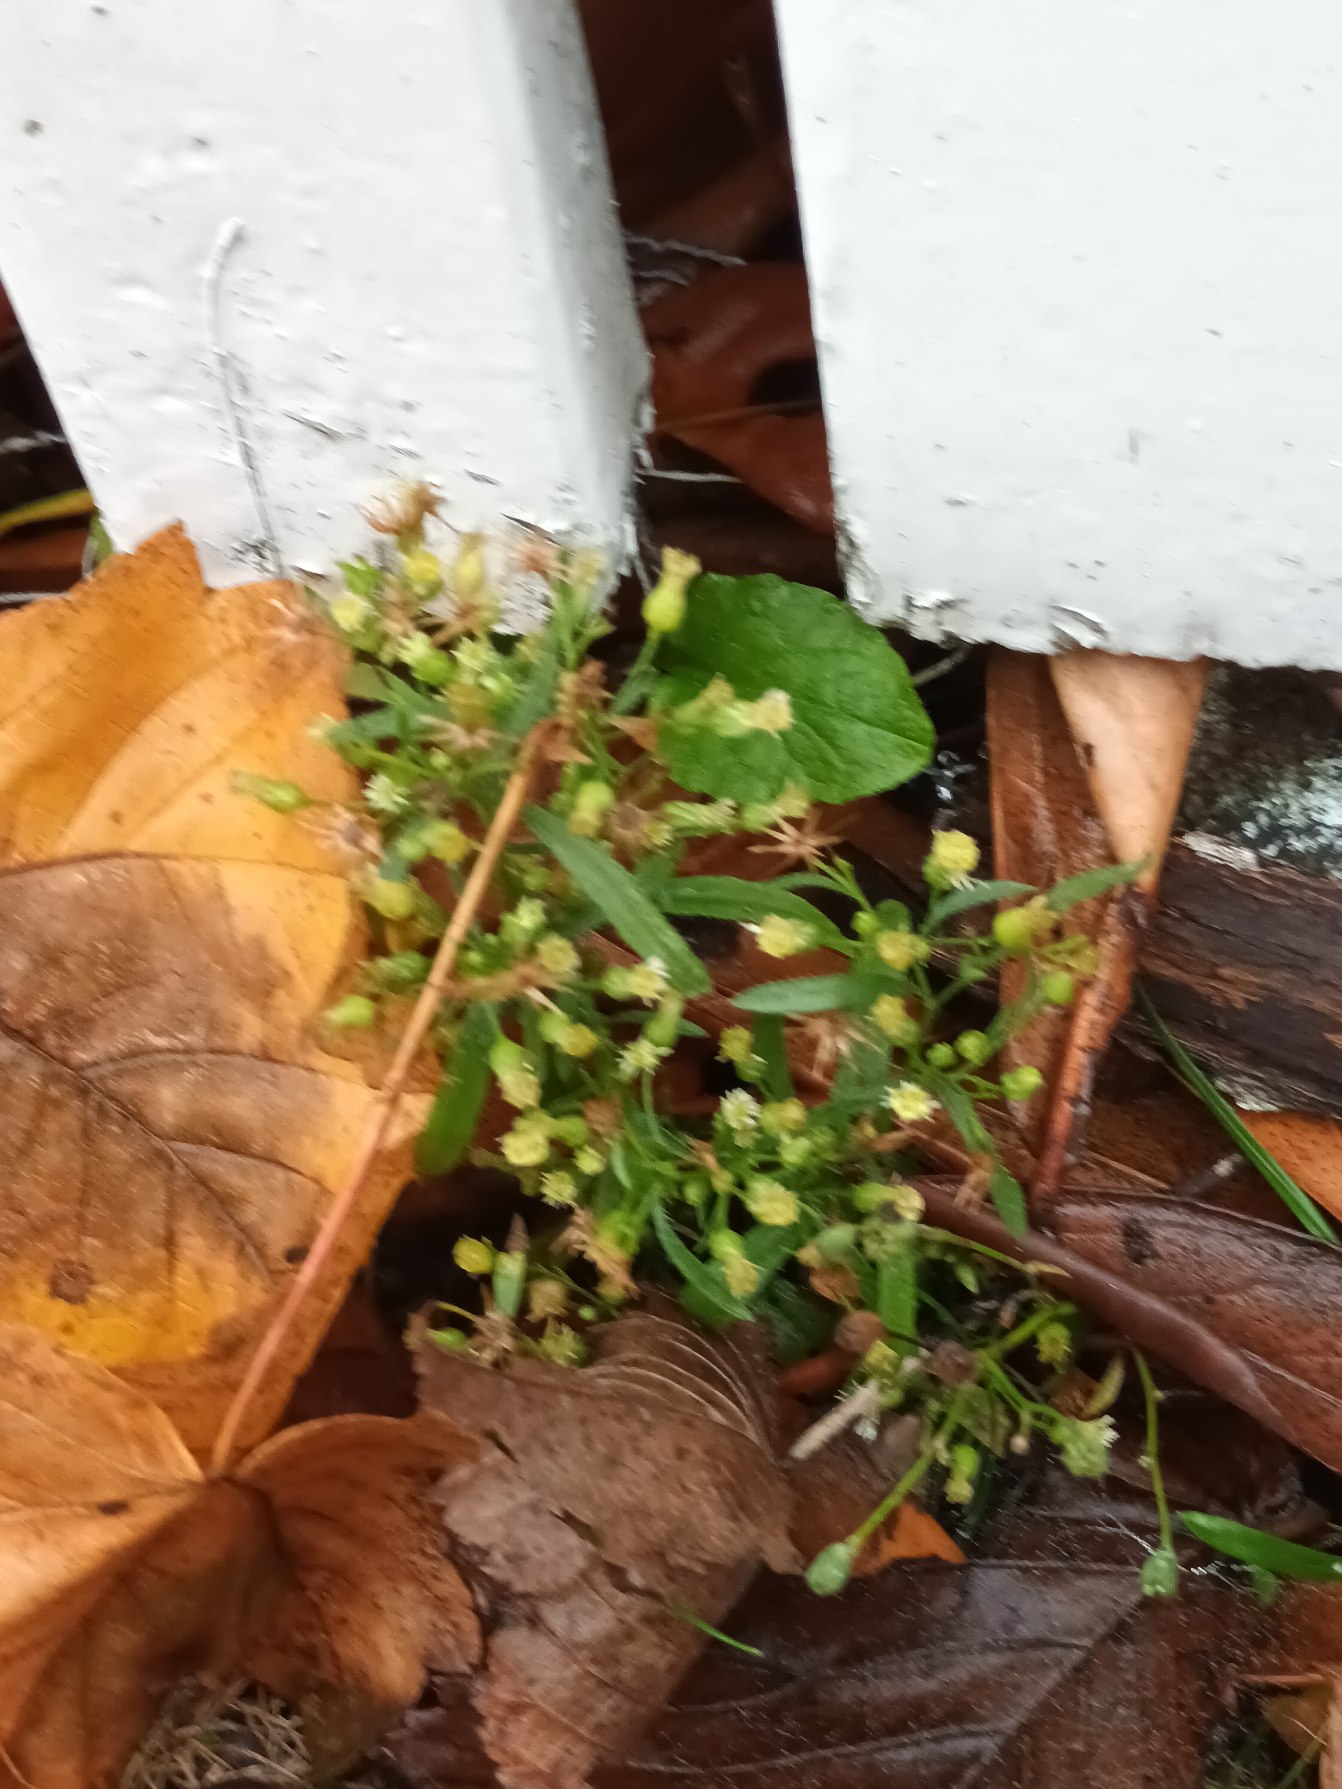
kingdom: Plantae
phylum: Tracheophyta
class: Magnoliopsida
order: Asterales
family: Asteraceae
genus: Erigeron
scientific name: Erigeron canadensis
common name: Kanadisk bakkestjerne
